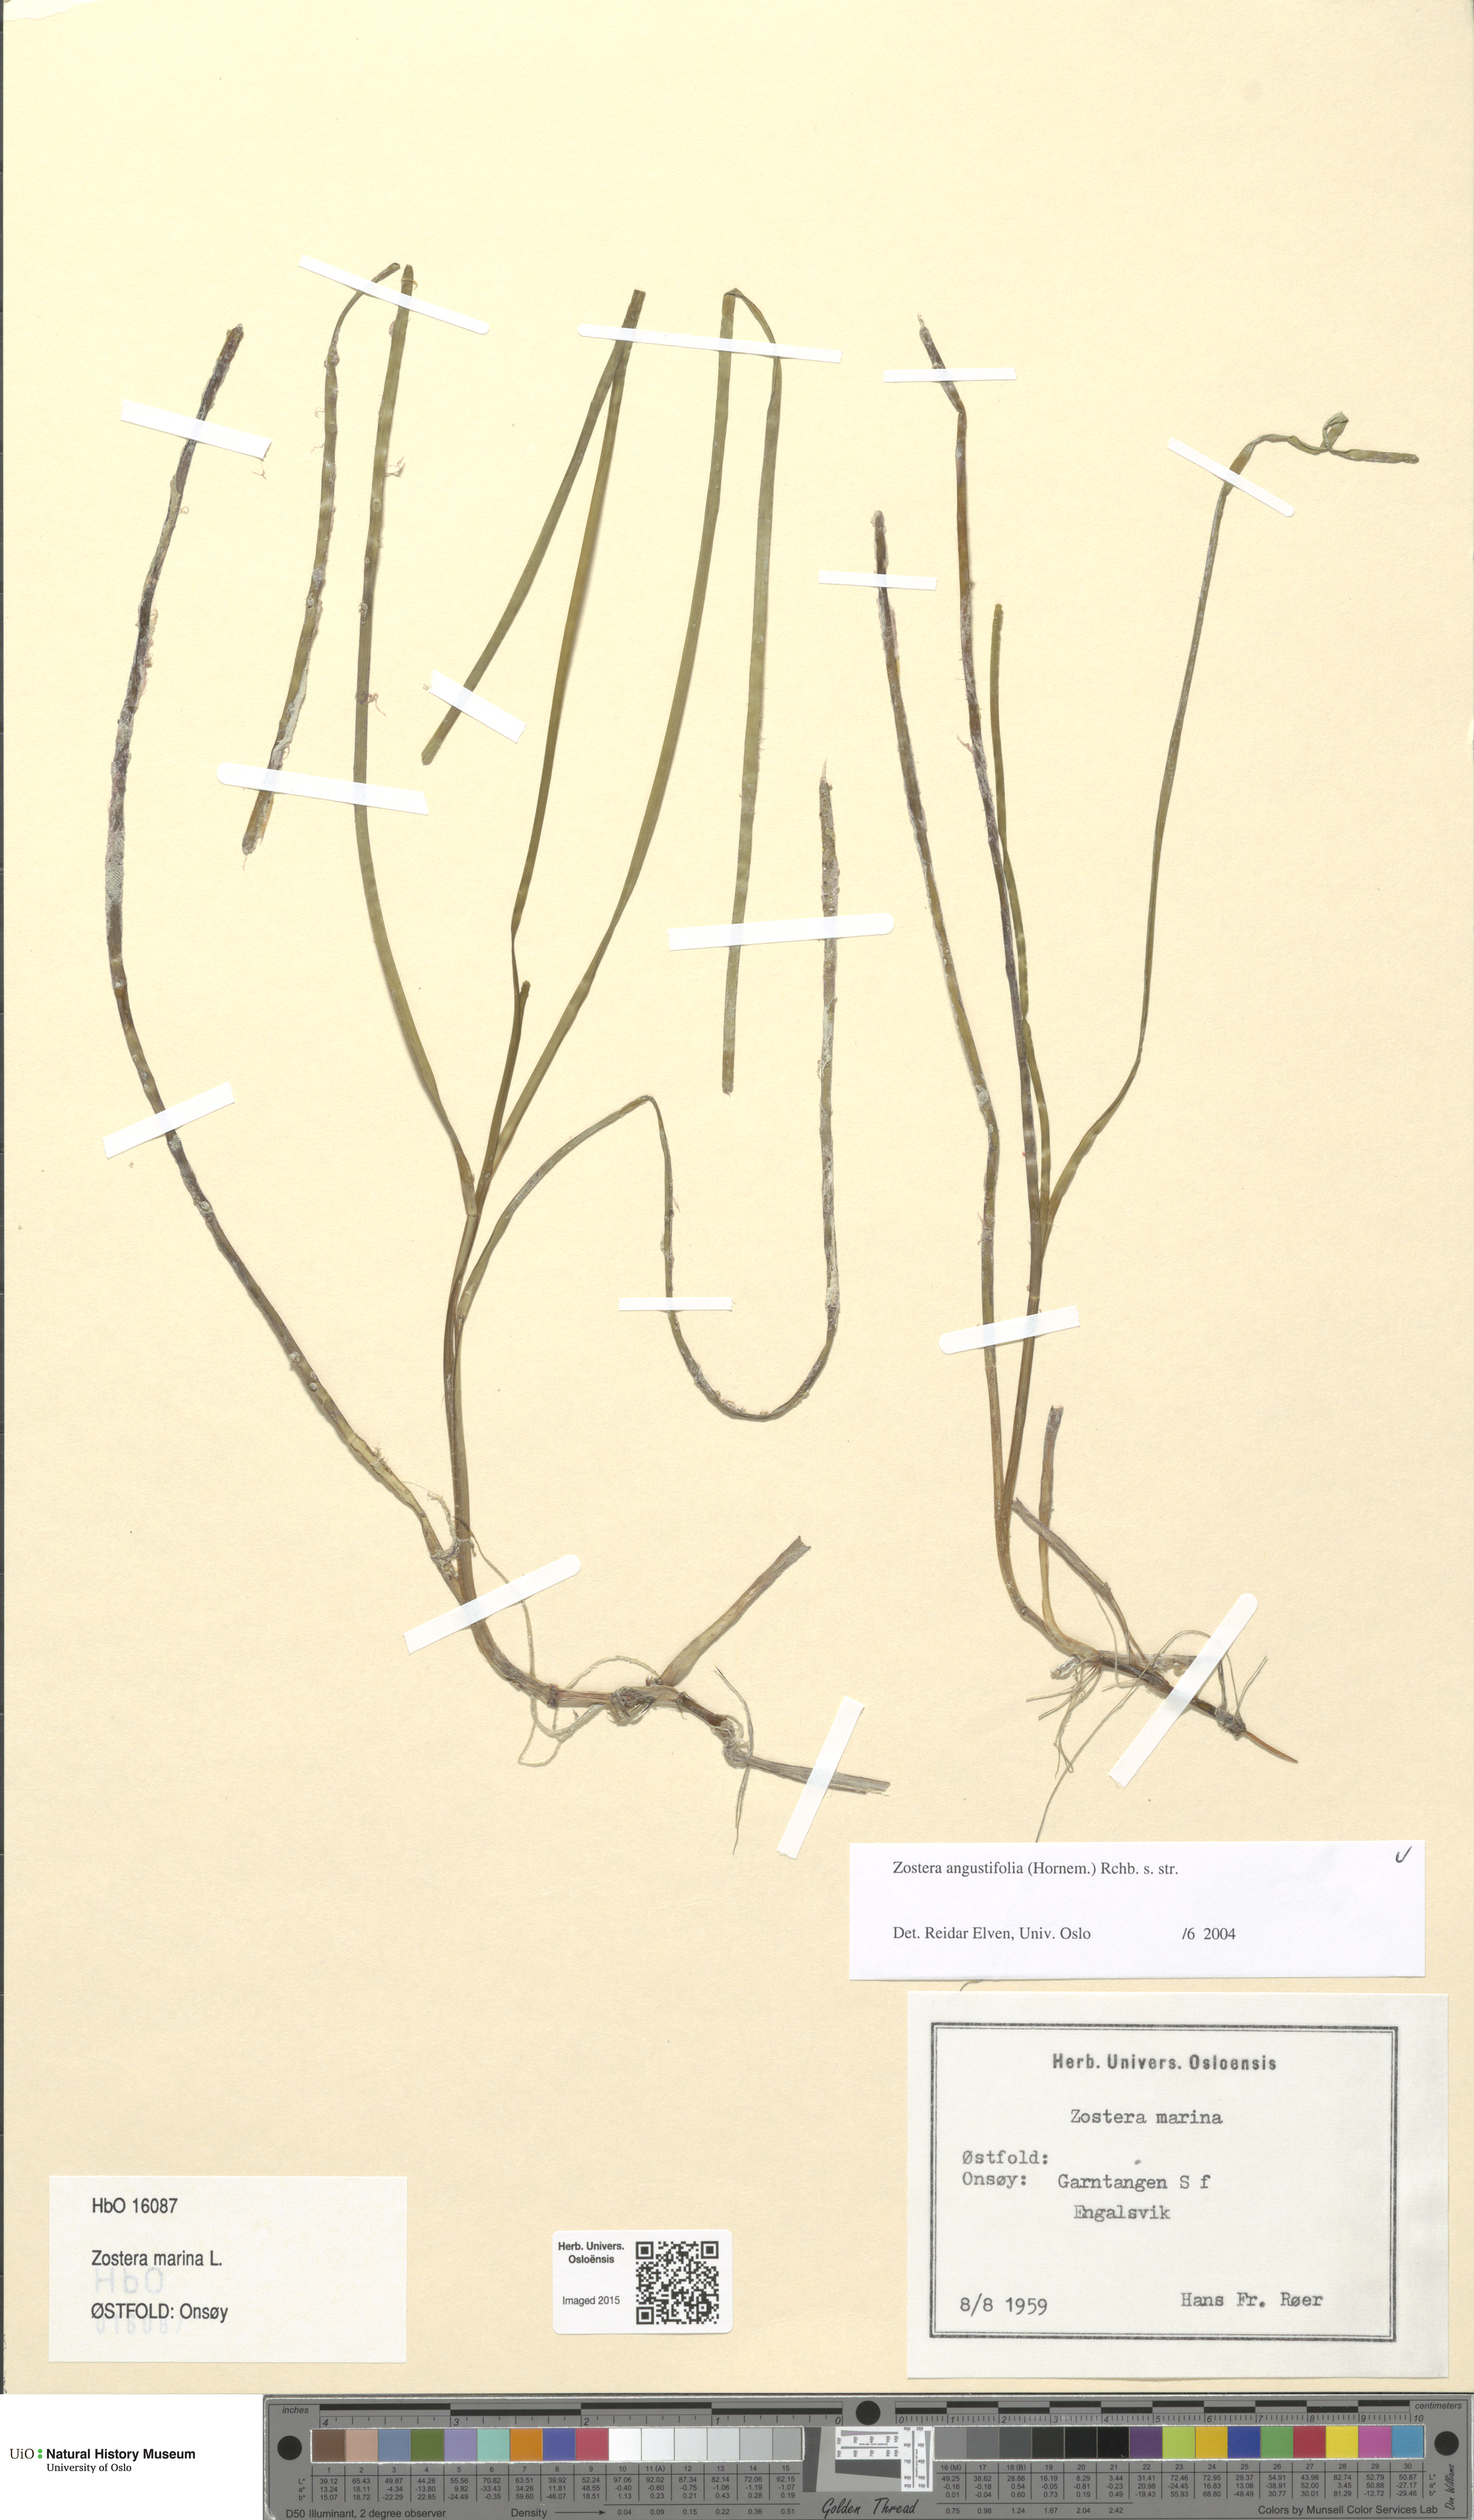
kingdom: Plantae
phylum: Tracheophyta
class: Liliopsida
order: Alismatales
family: Zosteraceae
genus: Zostera
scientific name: Zostera angustifolia
